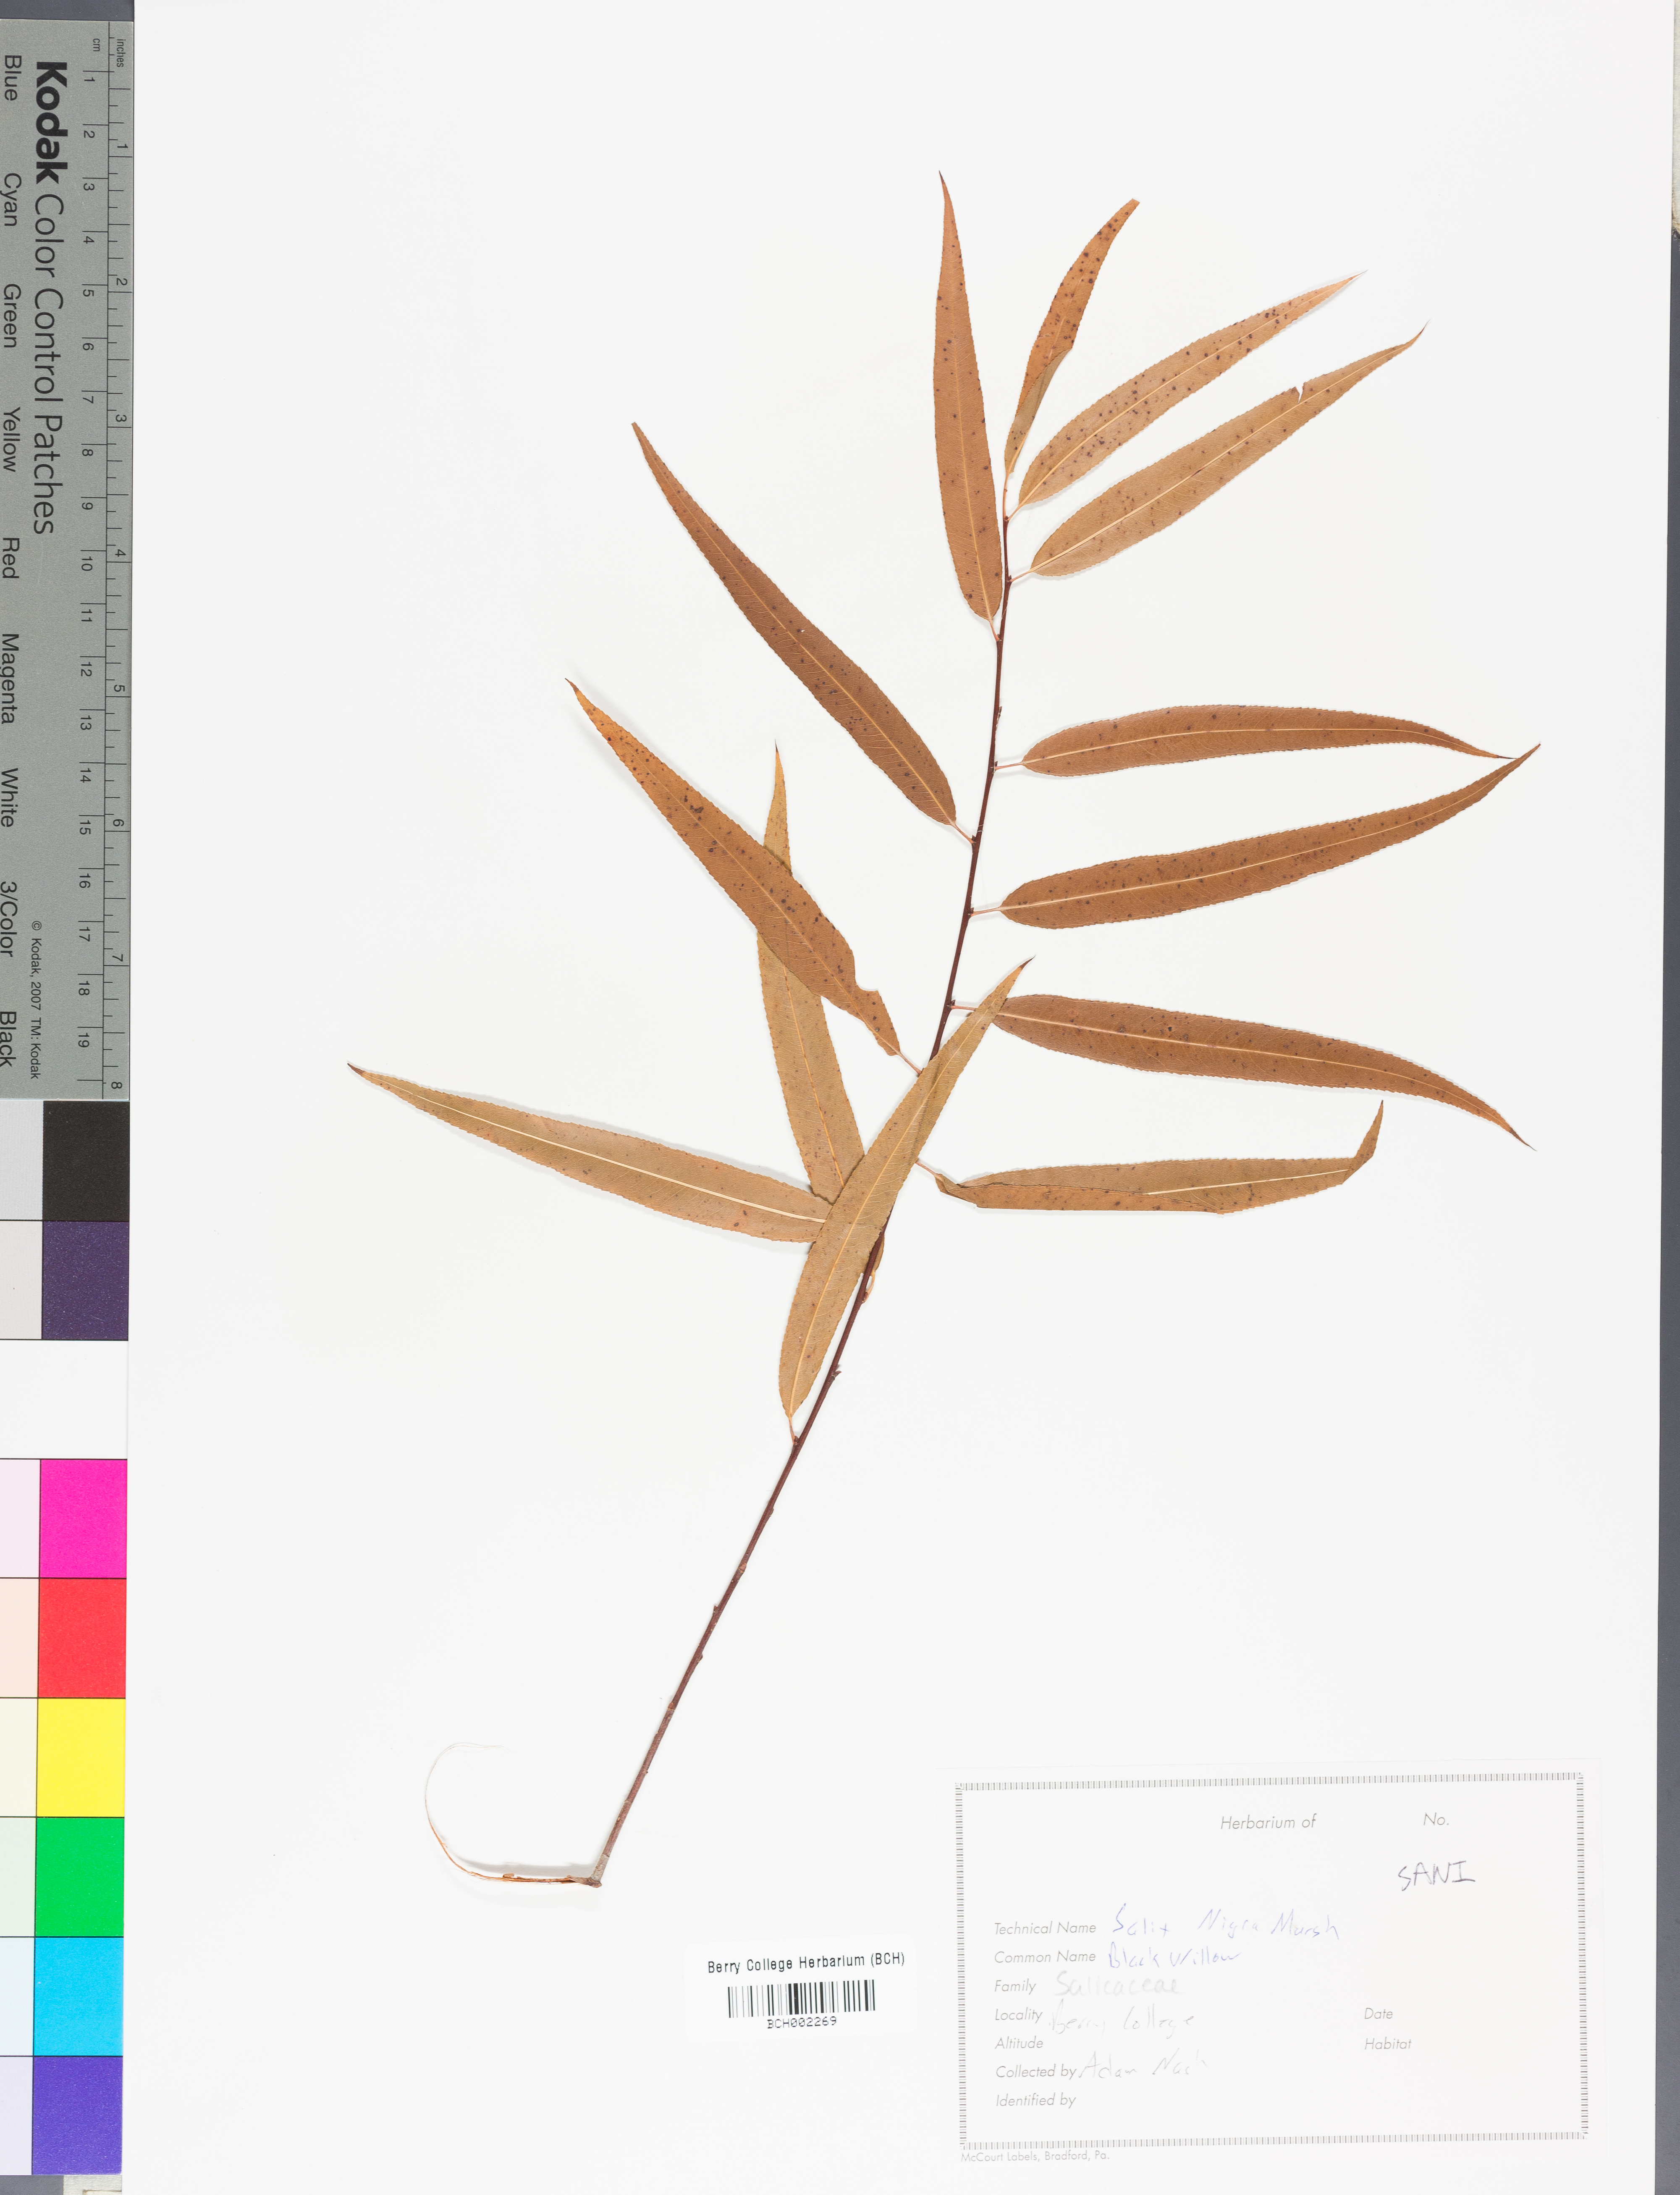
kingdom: Plantae
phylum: Tracheophyta
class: Magnoliopsida
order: Malpighiales
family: Salicaceae
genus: Salix
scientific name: Salix nigra
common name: Black willow
